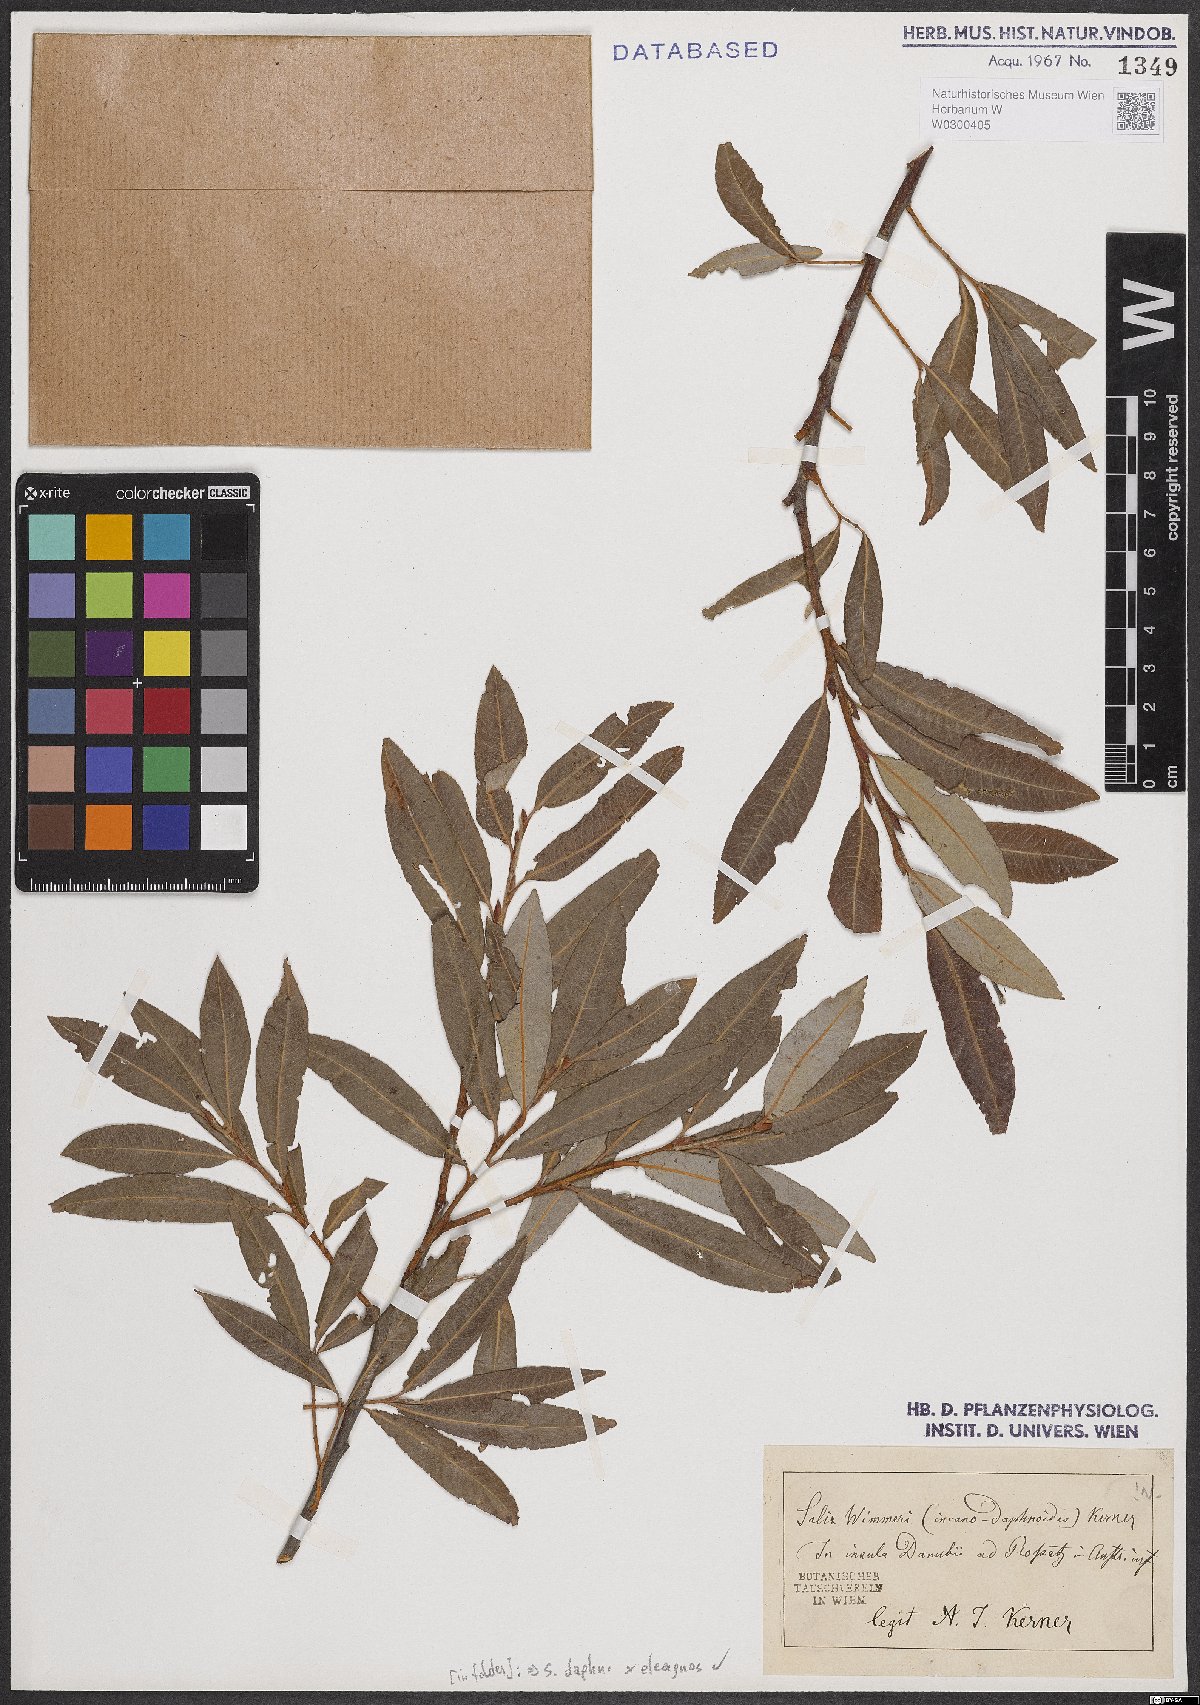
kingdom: Plantae
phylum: Tracheophyta
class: Magnoliopsida
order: Malpighiales
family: Salicaceae
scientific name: Salicaceae
